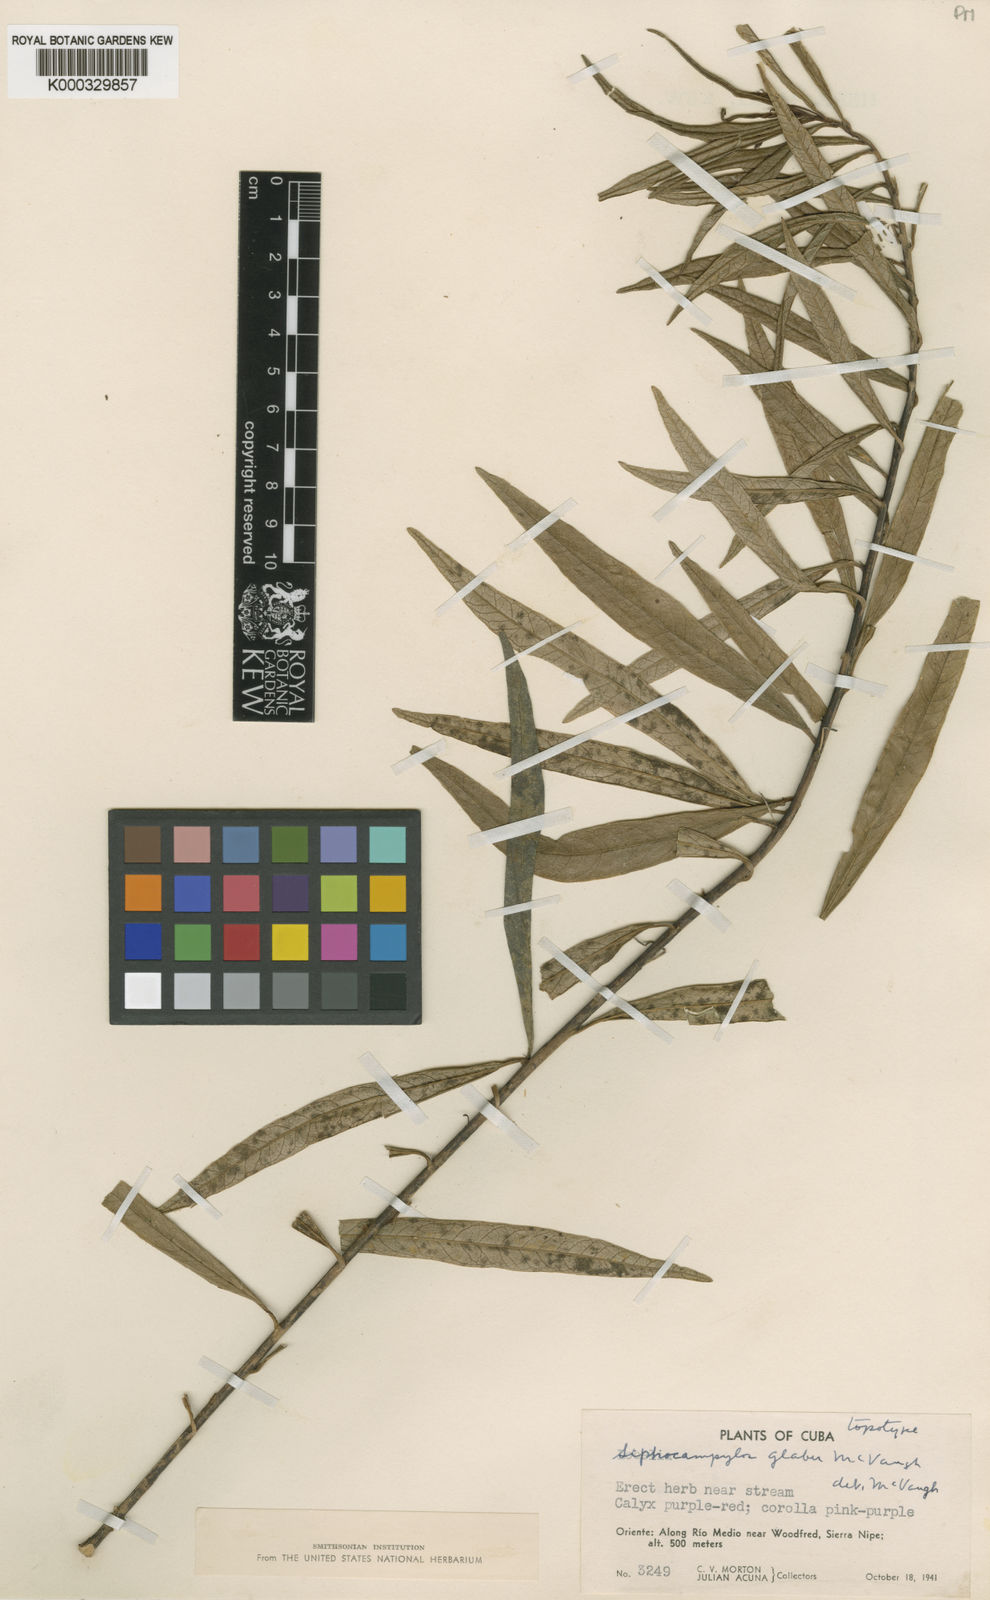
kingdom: Plantae
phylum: Tracheophyta
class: Magnoliopsida
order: Asterales
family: Campanulaceae
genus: Siphocampylus
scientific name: Siphocampylus glaber
